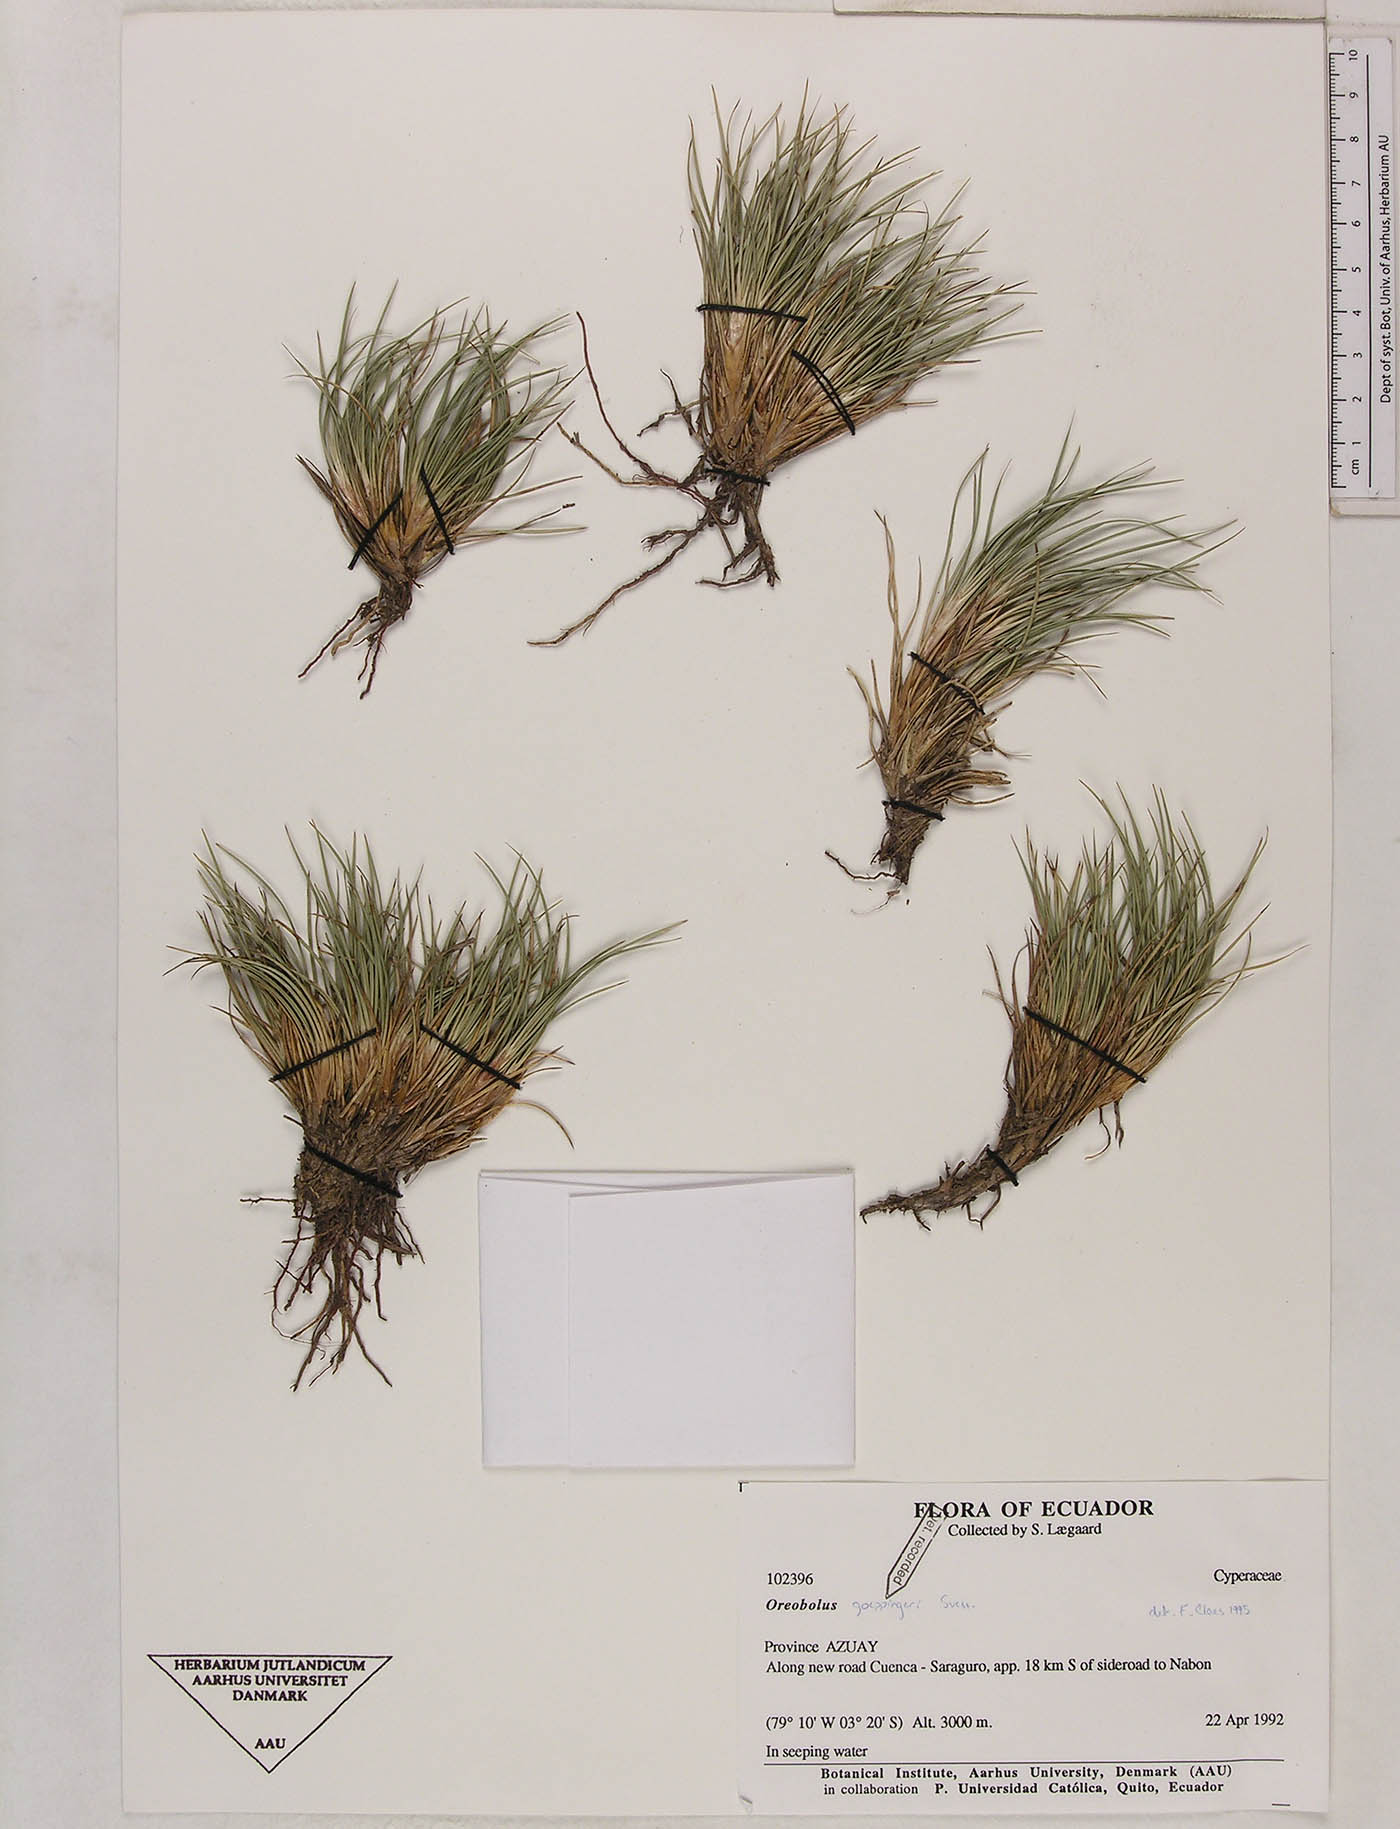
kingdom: Plantae
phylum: Tracheophyta
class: Liliopsida
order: Poales
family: Cyperaceae
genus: Oreobolus
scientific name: Oreobolus goeppingeri
